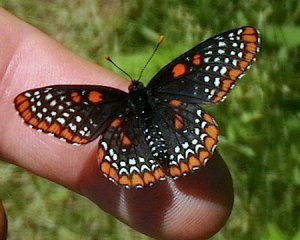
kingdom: Animalia
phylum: Arthropoda
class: Insecta
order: Lepidoptera
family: Nymphalidae
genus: Euphydryas
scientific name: Euphydryas phaeton
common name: Baltimore Checkerspot
